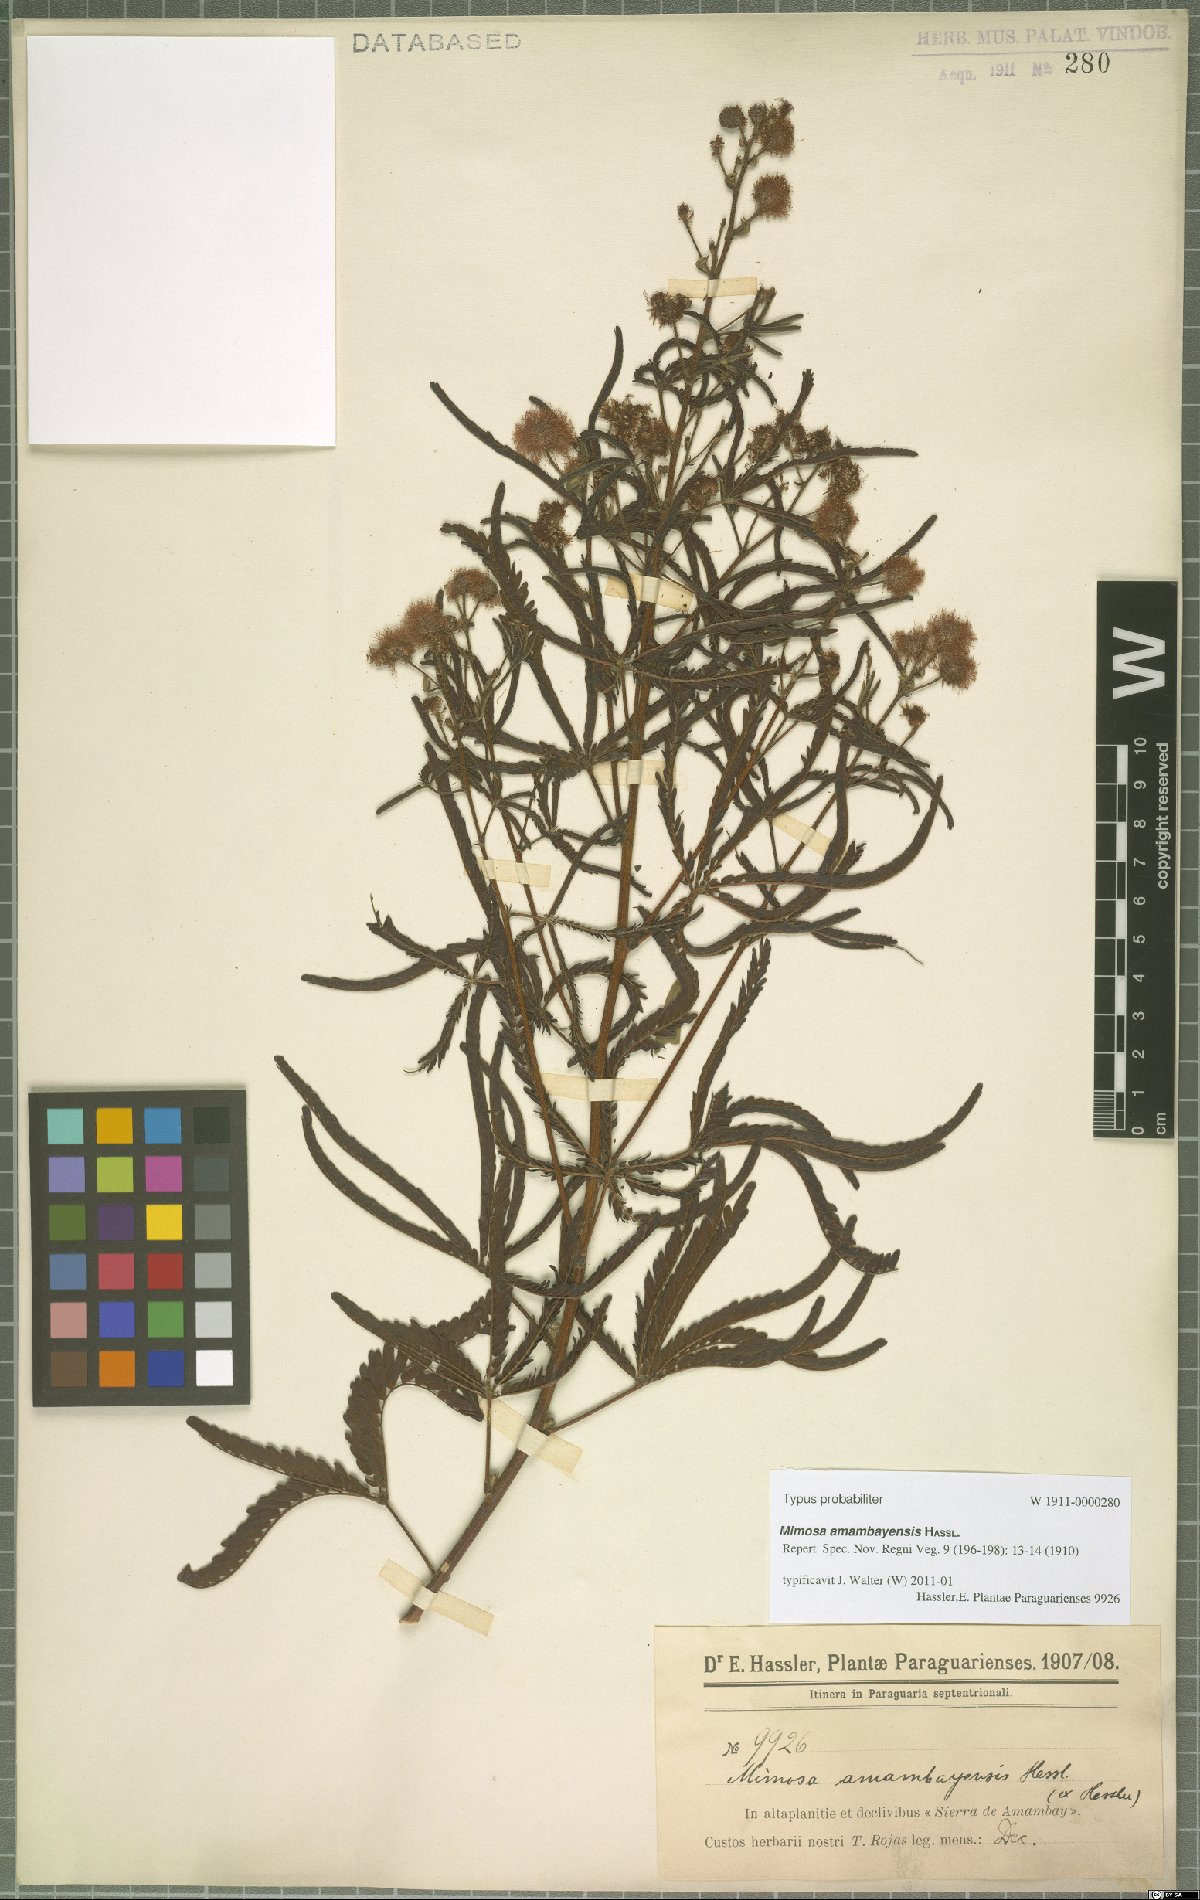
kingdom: Plantae
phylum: Tracheophyta
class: Magnoliopsida
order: Fabales
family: Fabaceae
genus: Mimosa
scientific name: Mimosa amambayensis
